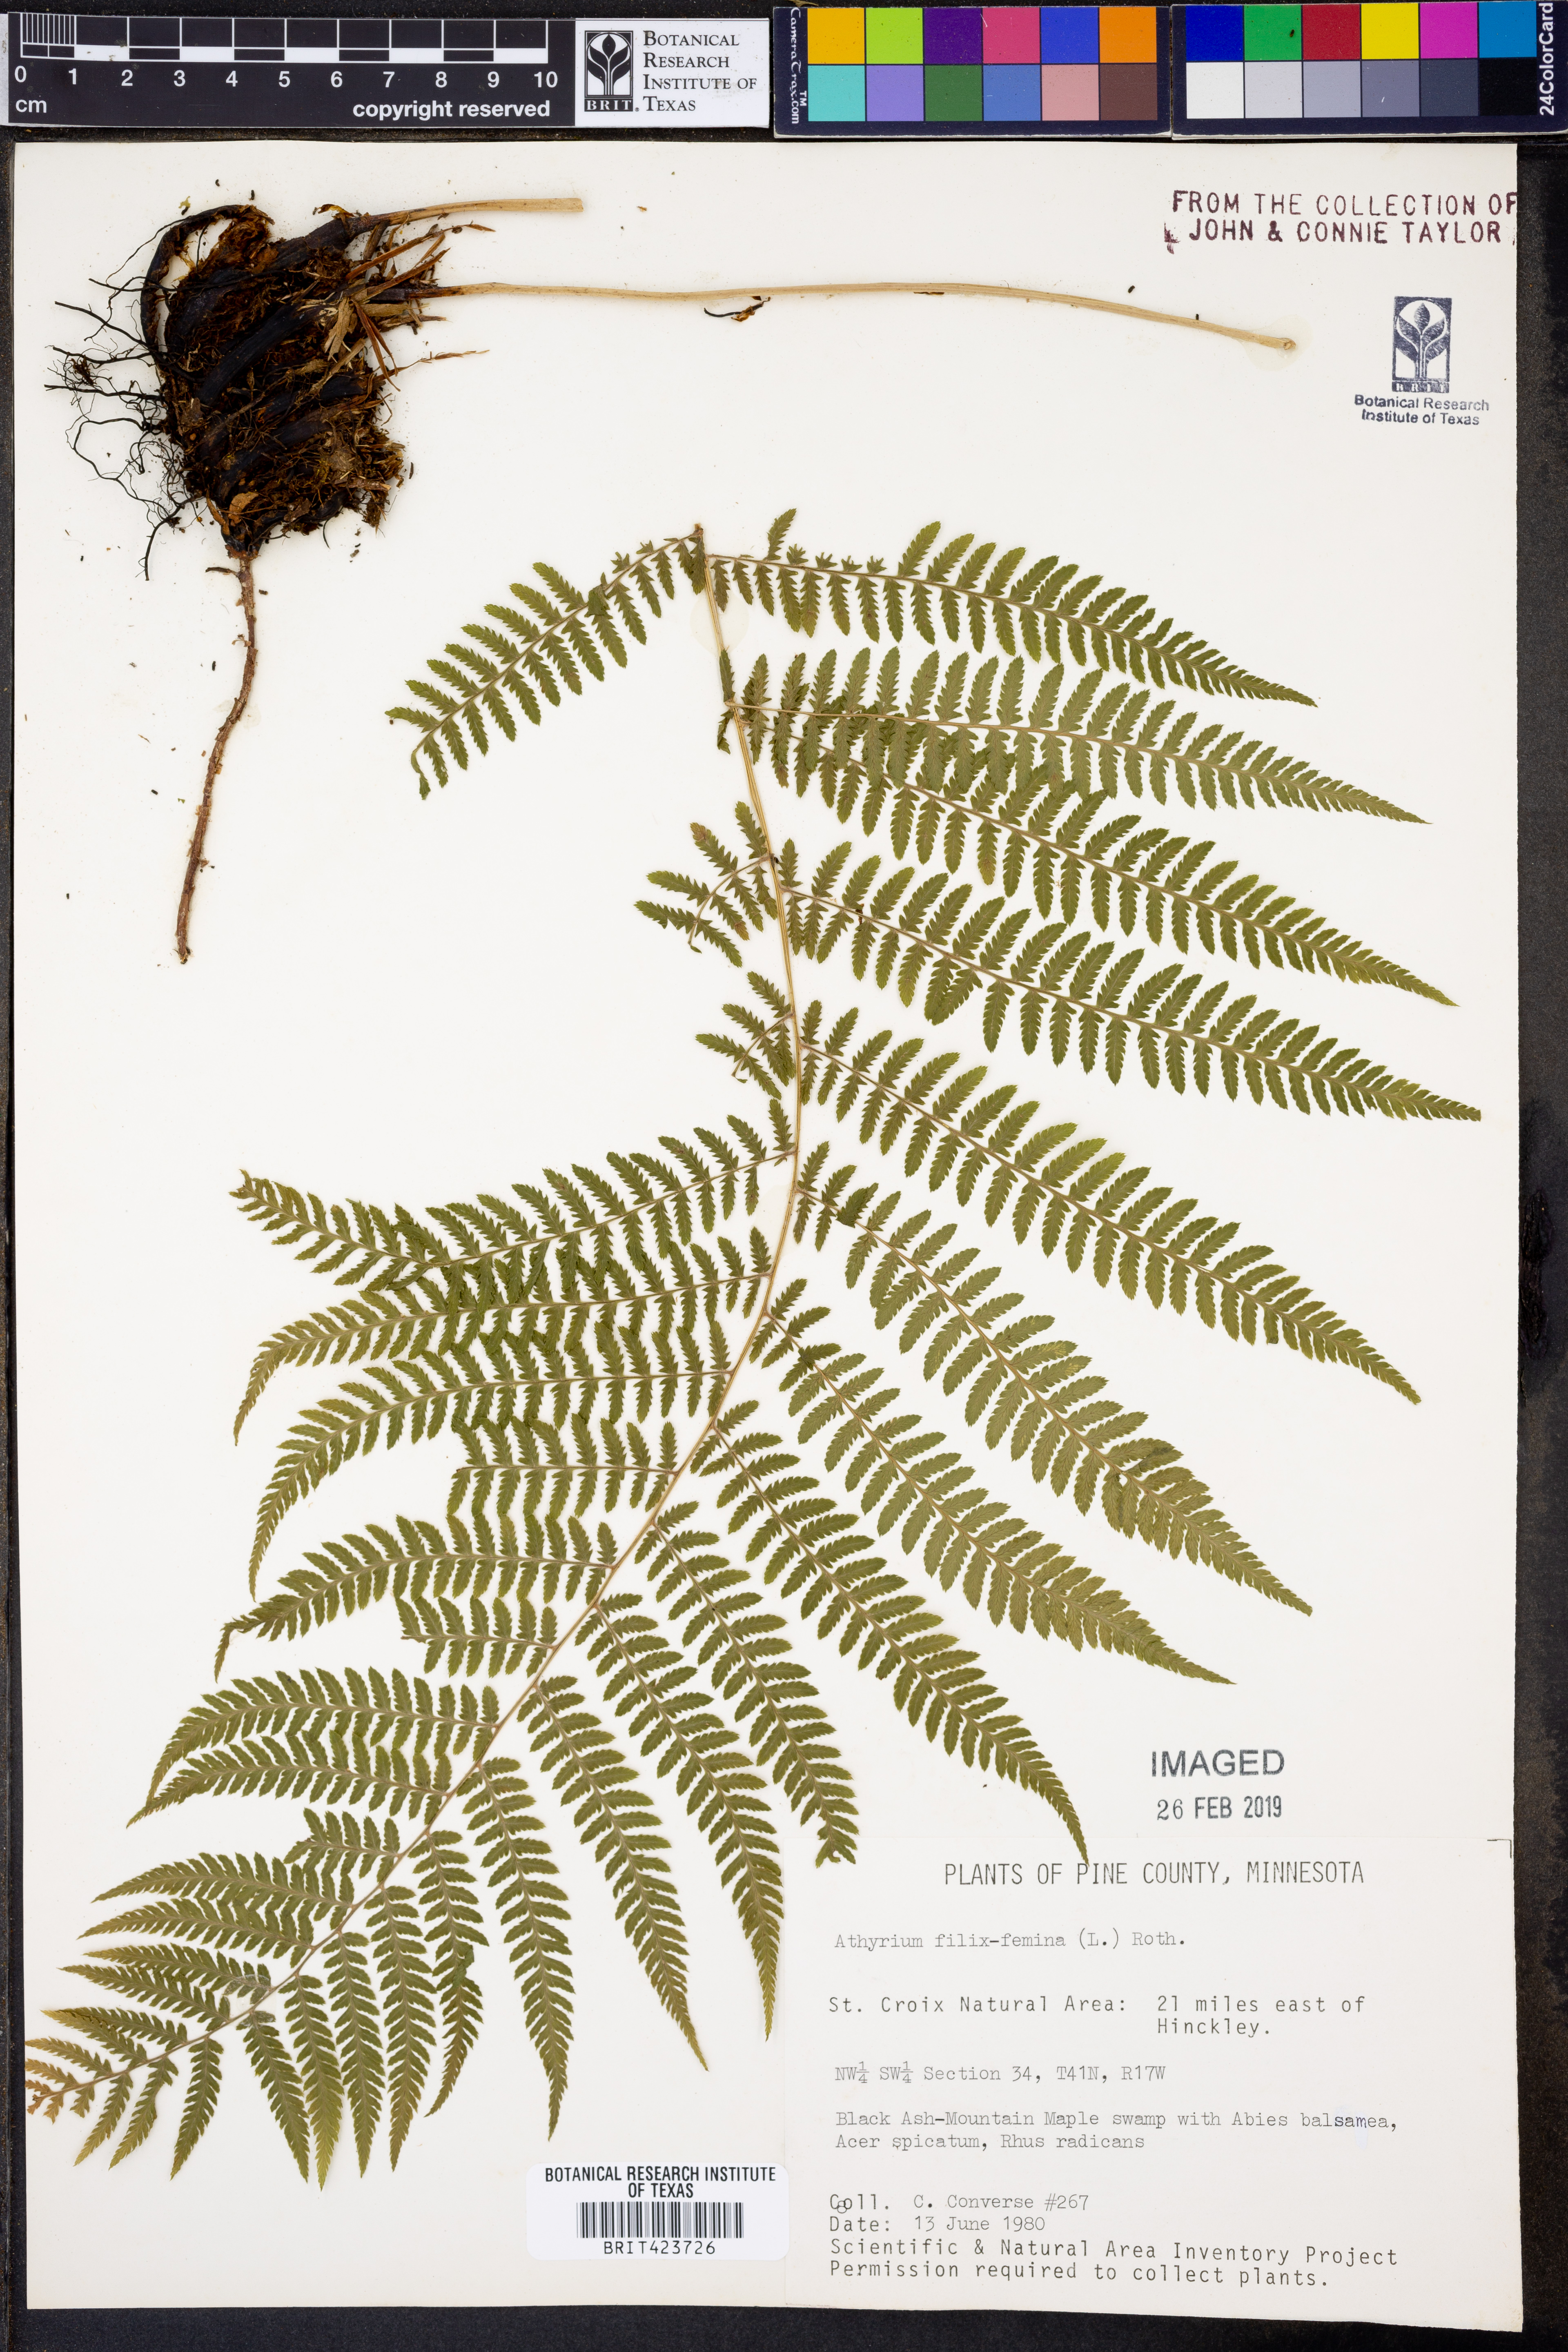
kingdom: Plantae
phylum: Tracheophyta
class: Polypodiopsida
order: Polypodiales
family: Athyriaceae
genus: Athyrium
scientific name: Athyrium filix-femina
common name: Lady fern
